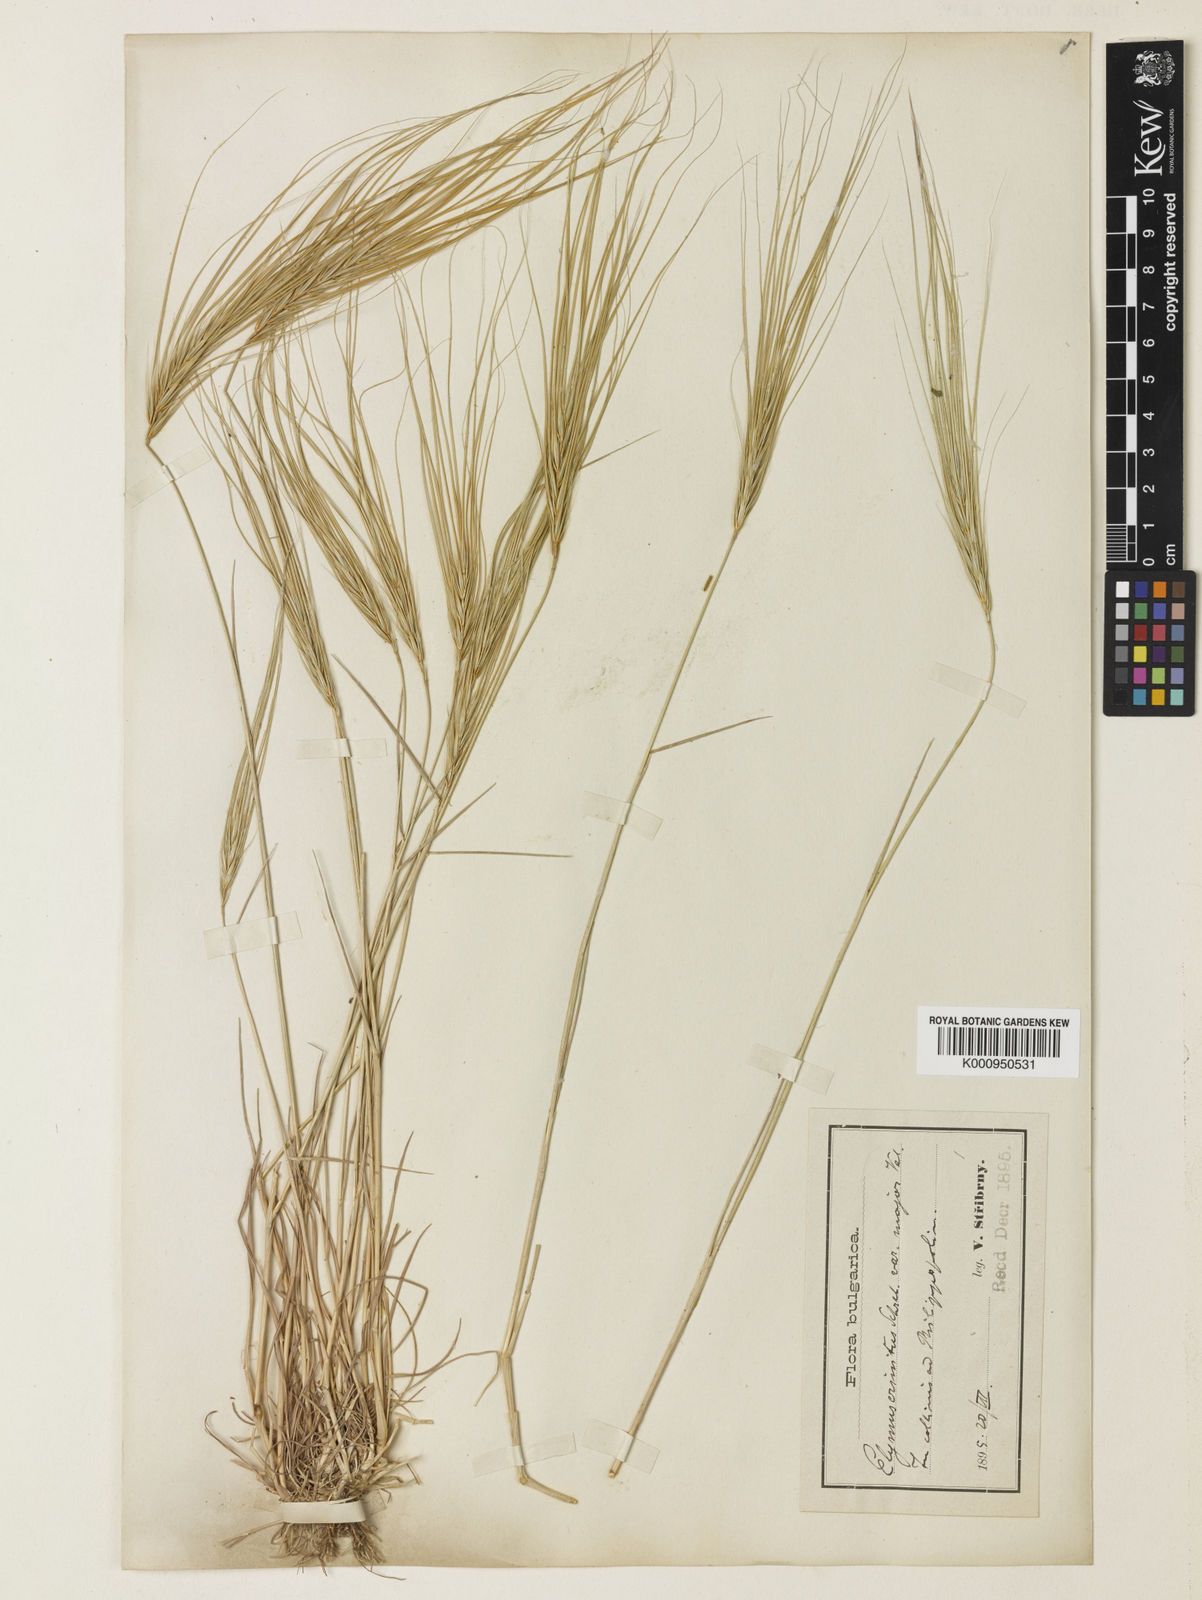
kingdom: Plantae
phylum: Tracheophyta
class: Liliopsida
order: Poales
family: Poaceae
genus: Taeniatherum
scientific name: Taeniatherum caput-medusae
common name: Medusahead
